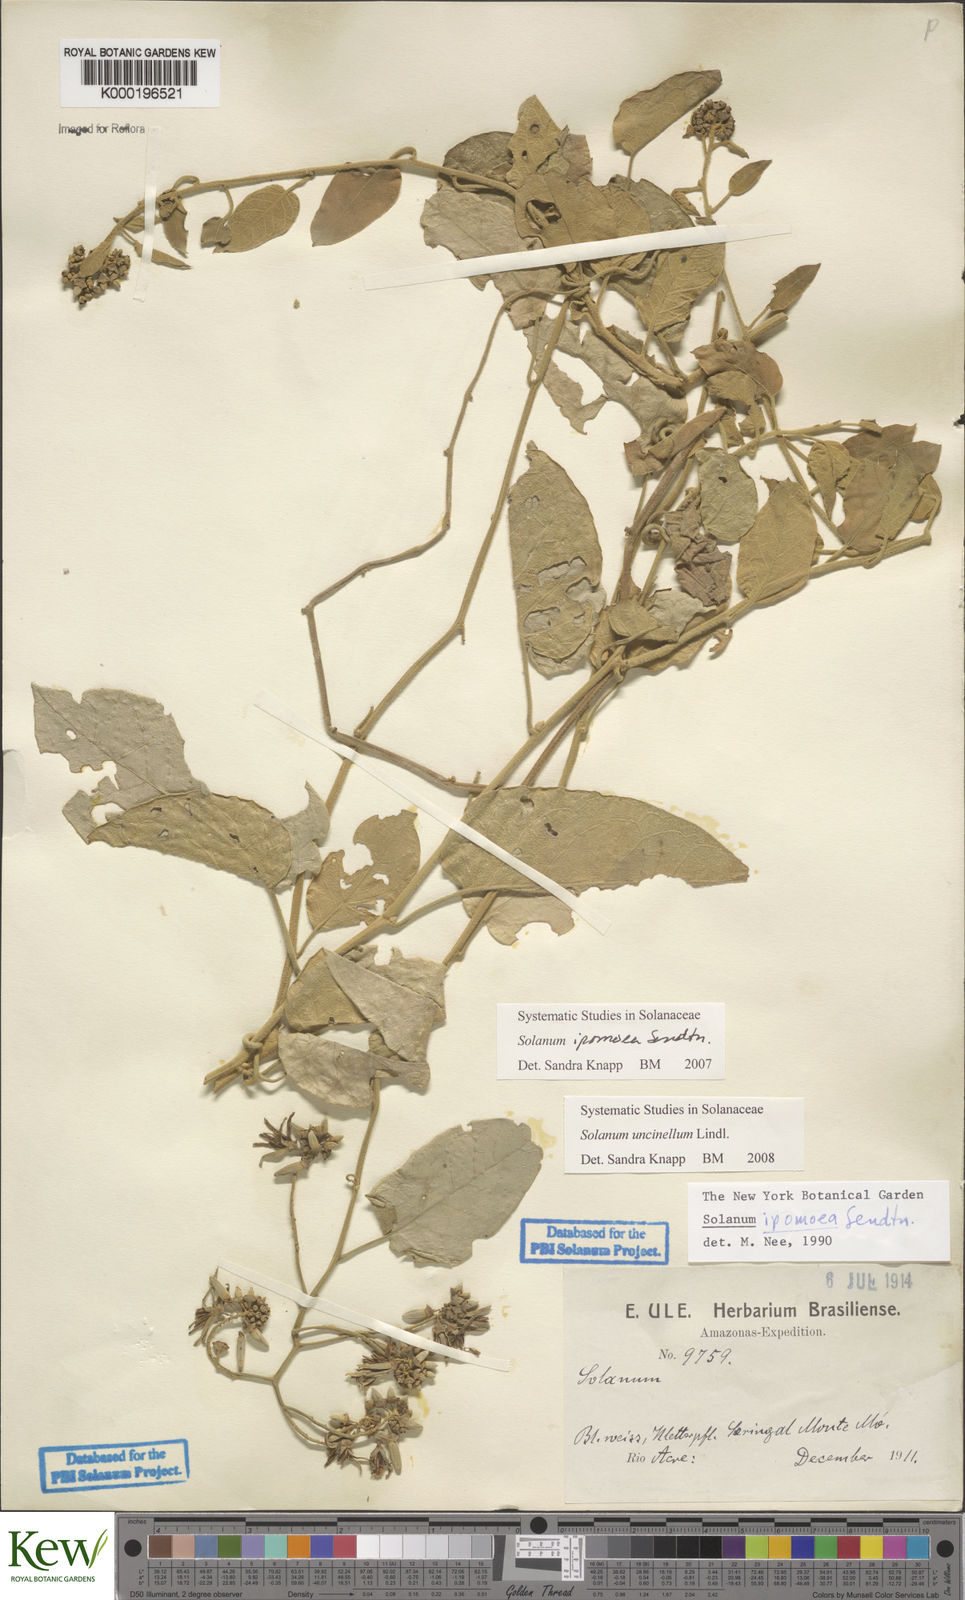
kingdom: Plantae
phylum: Tracheophyta
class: Magnoliopsida
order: Solanales
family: Solanaceae
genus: Solanum
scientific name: Solanum uncinellum
